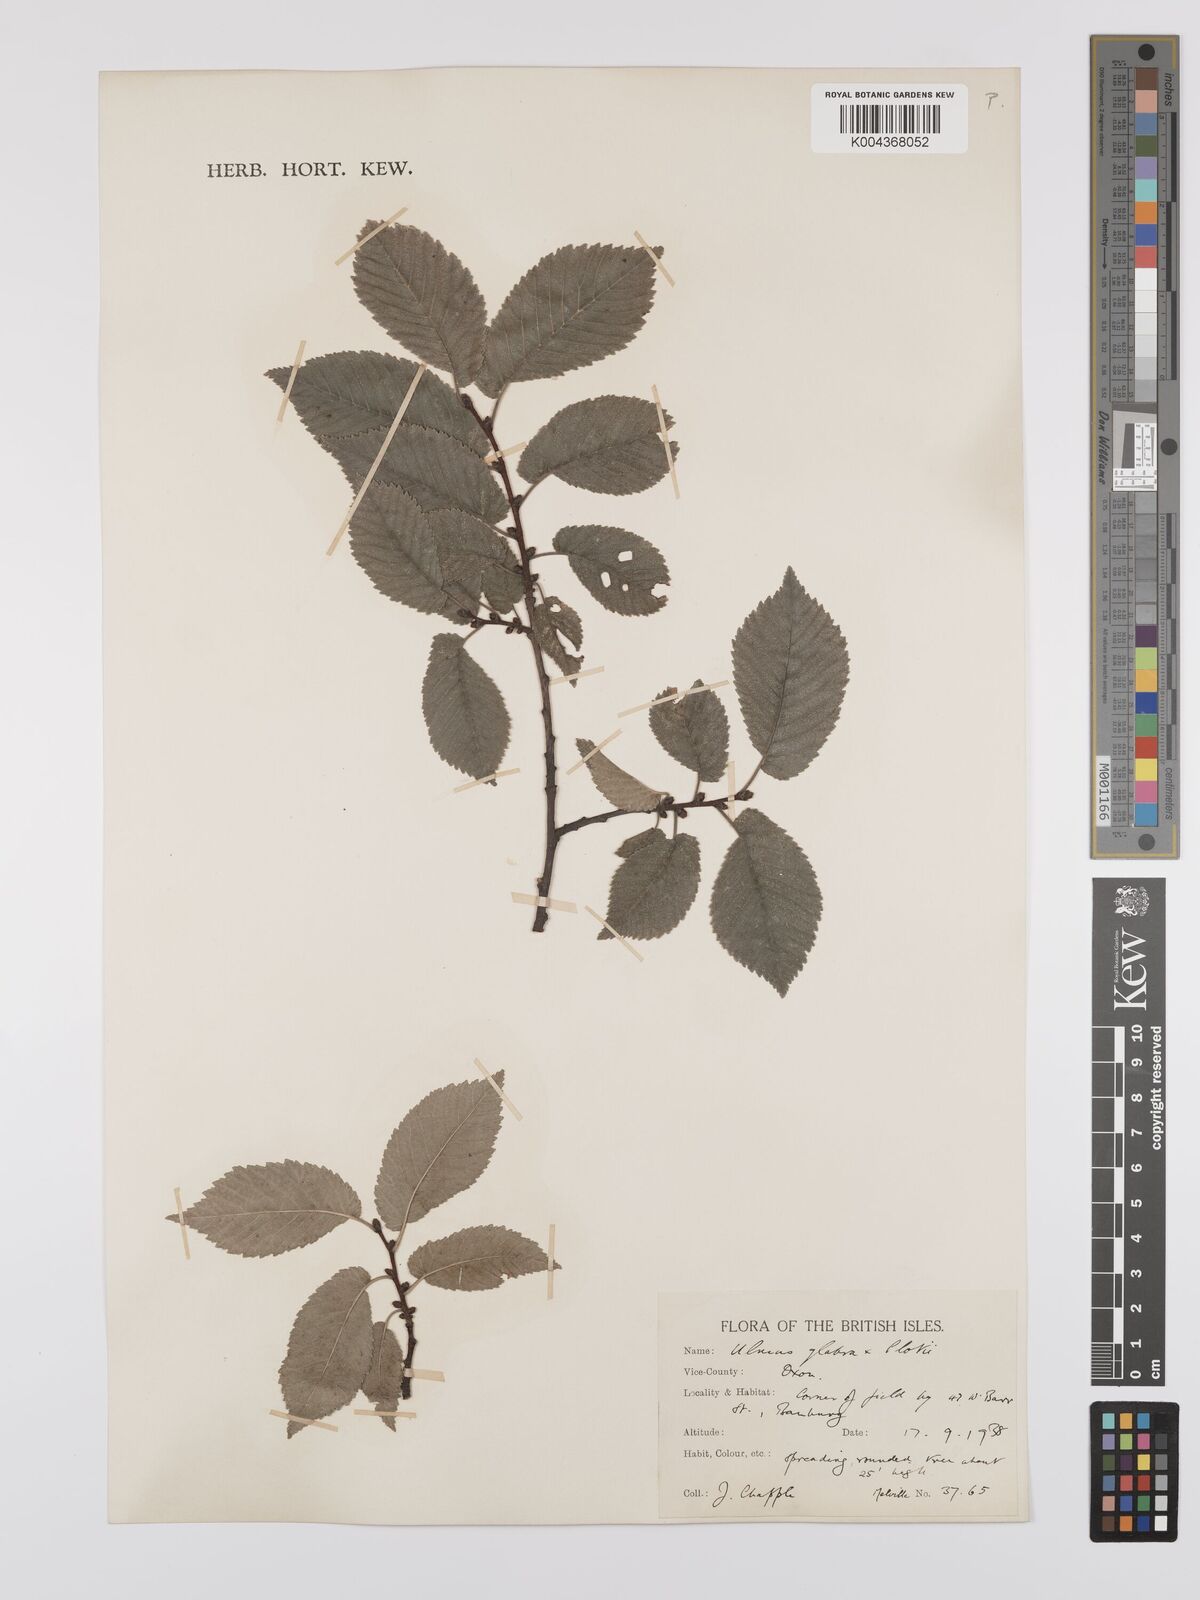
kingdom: Plantae
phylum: Tracheophyta
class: Magnoliopsida
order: Rosales
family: Ulmaceae
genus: Ulmus
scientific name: Ulmus
